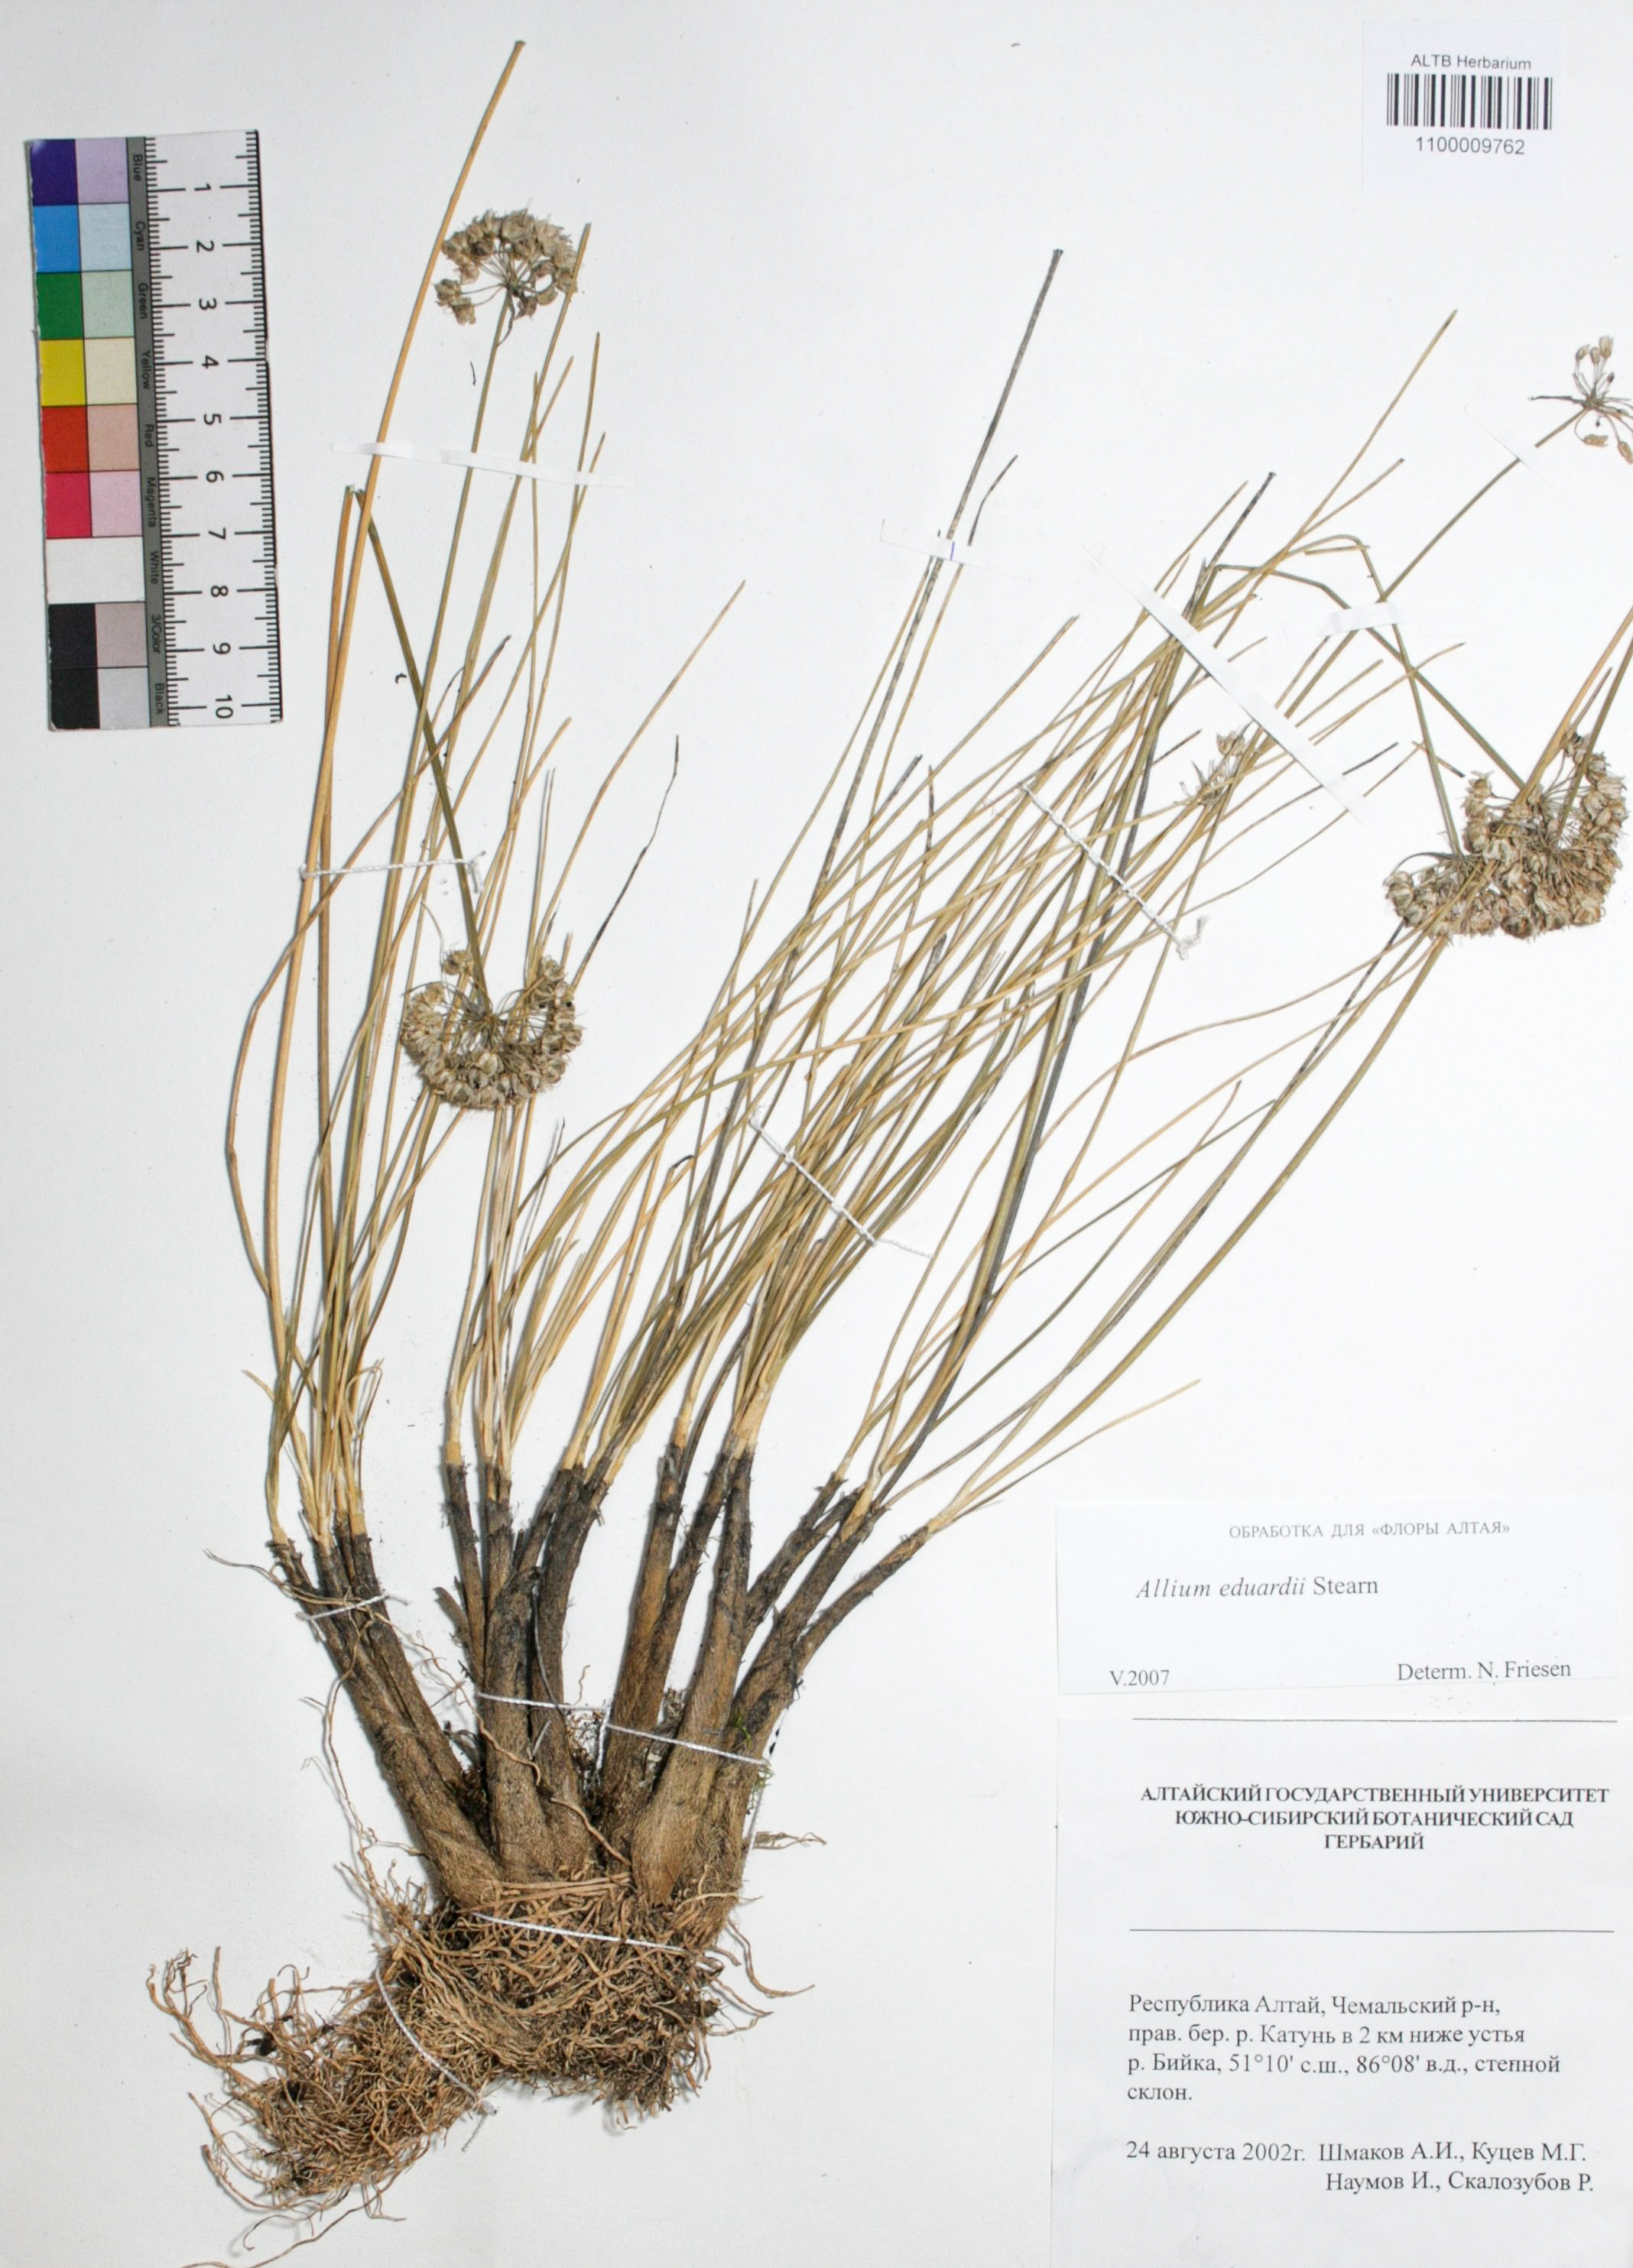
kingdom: Plantae
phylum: Tracheophyta
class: Liliopsida
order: Asparagales
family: Amaryllidaceae
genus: Allium
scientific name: Allium eduardi
